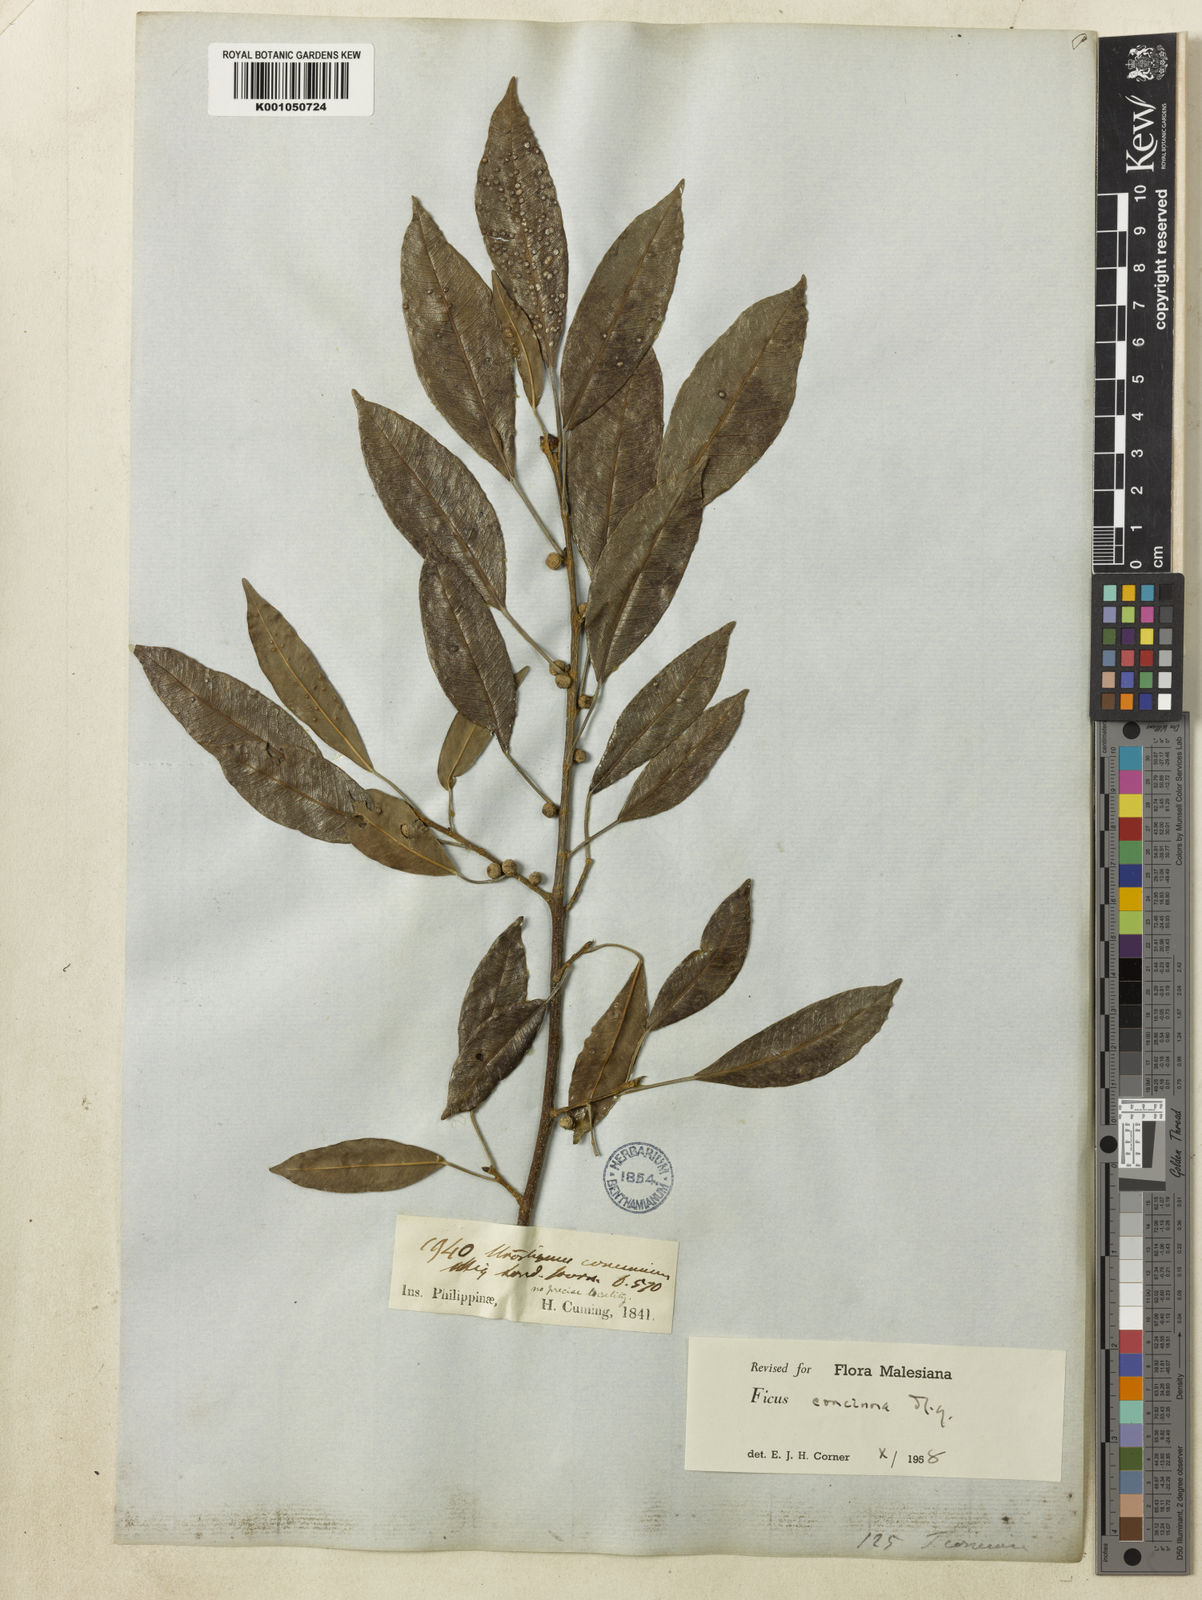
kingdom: Plantae
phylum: Tracheophyta
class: Magnoliopsida
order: Rosales
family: Moraceae
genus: Ficus
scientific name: Ficus concinna
